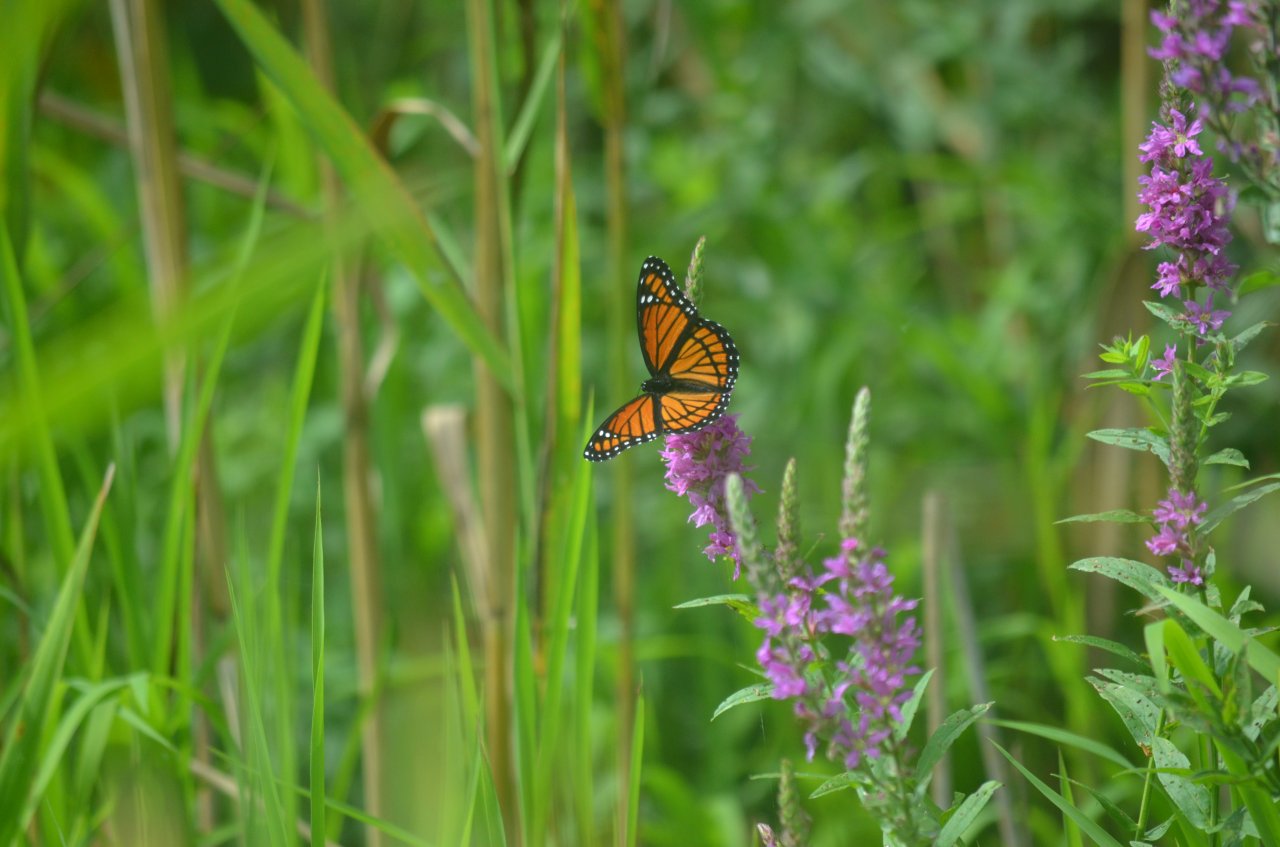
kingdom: Animalia
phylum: Arthropoda
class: Insecta
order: Lepidoptera
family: Nymphalidae
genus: Limenitis
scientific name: Limenitis archippus
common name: Viceroy
